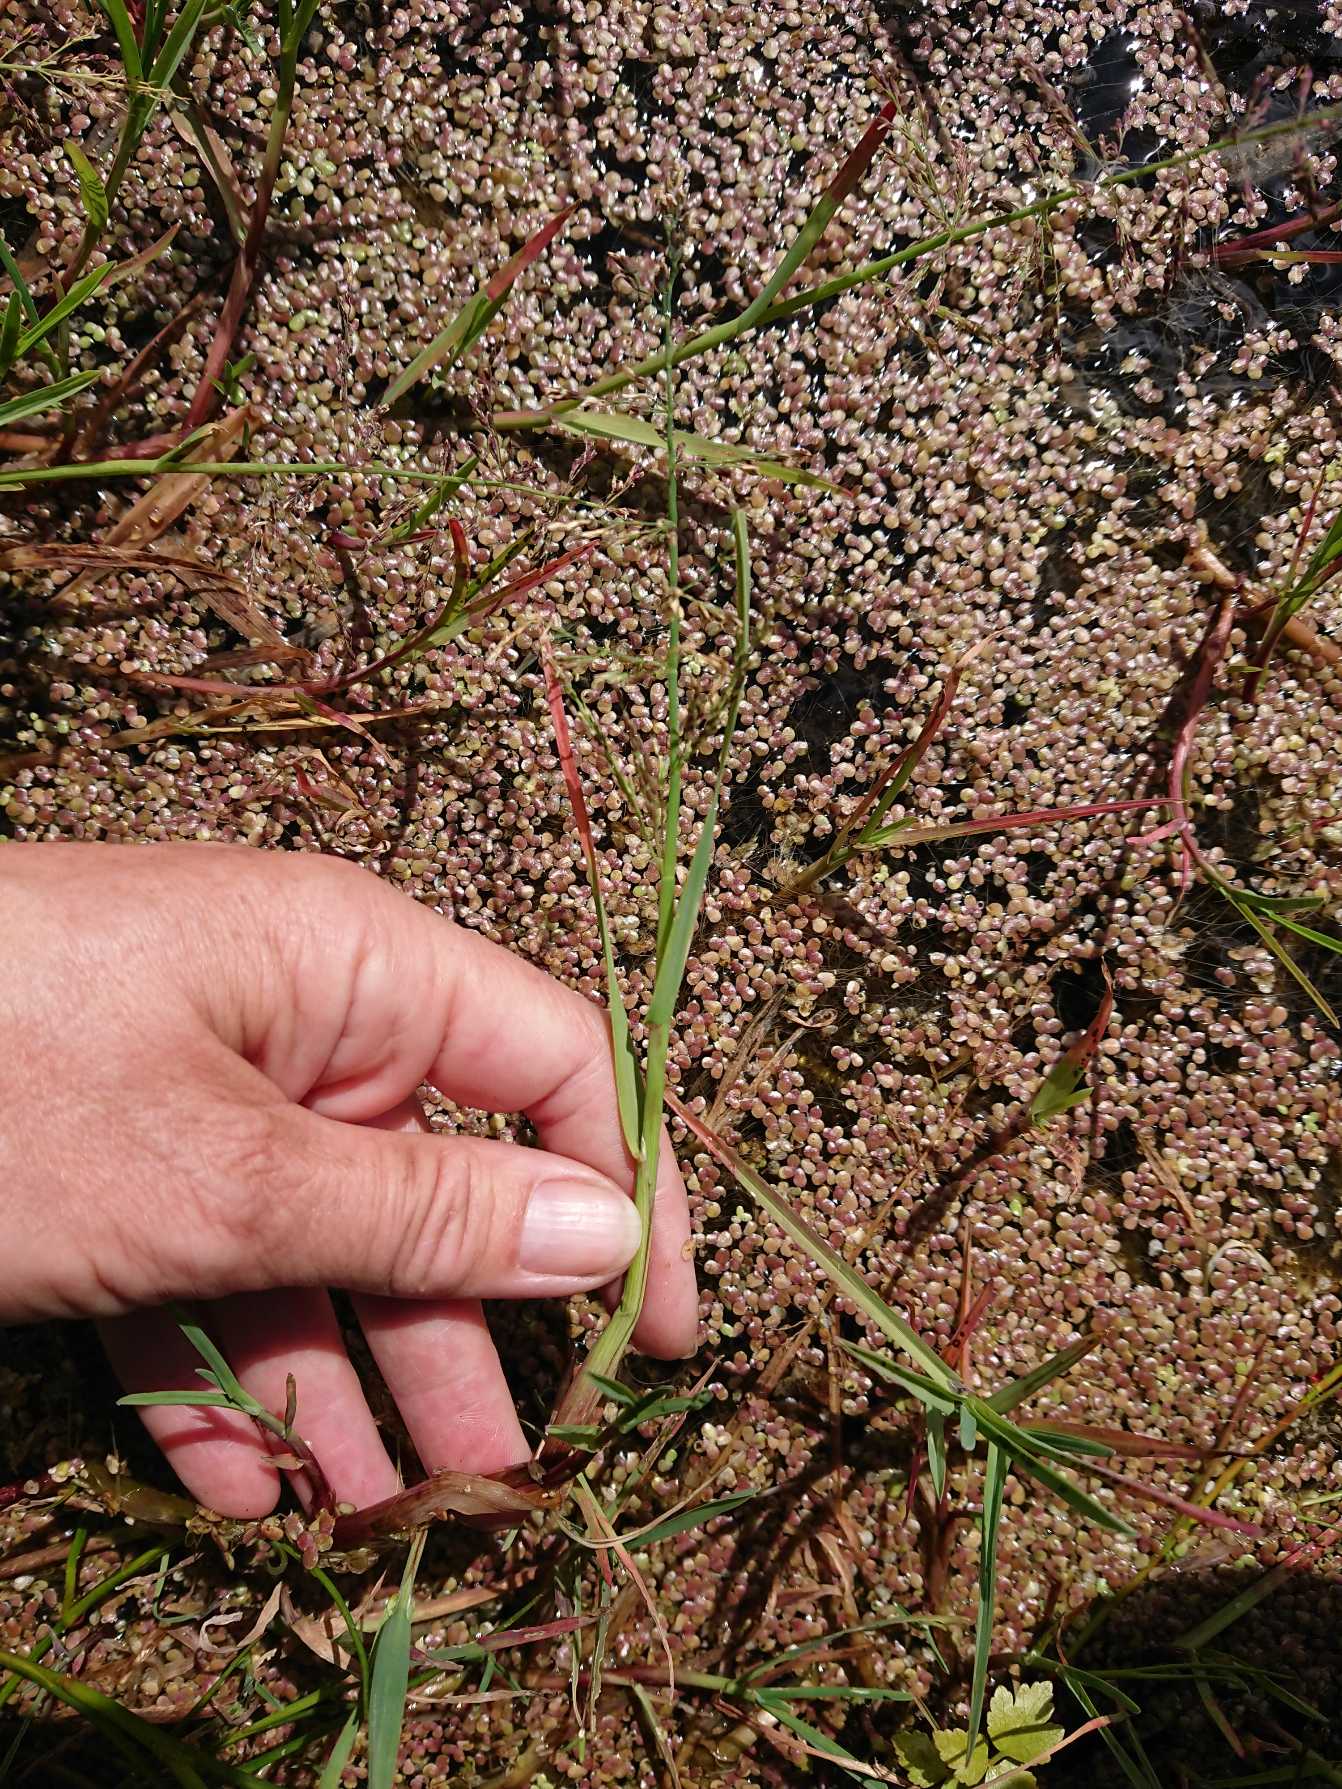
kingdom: Plantae
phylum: Tracheophyta
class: Liliopsida
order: Poales
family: Poaceae
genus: Catabrosa
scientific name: Catabrosa aquatica
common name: Tæppegræs
